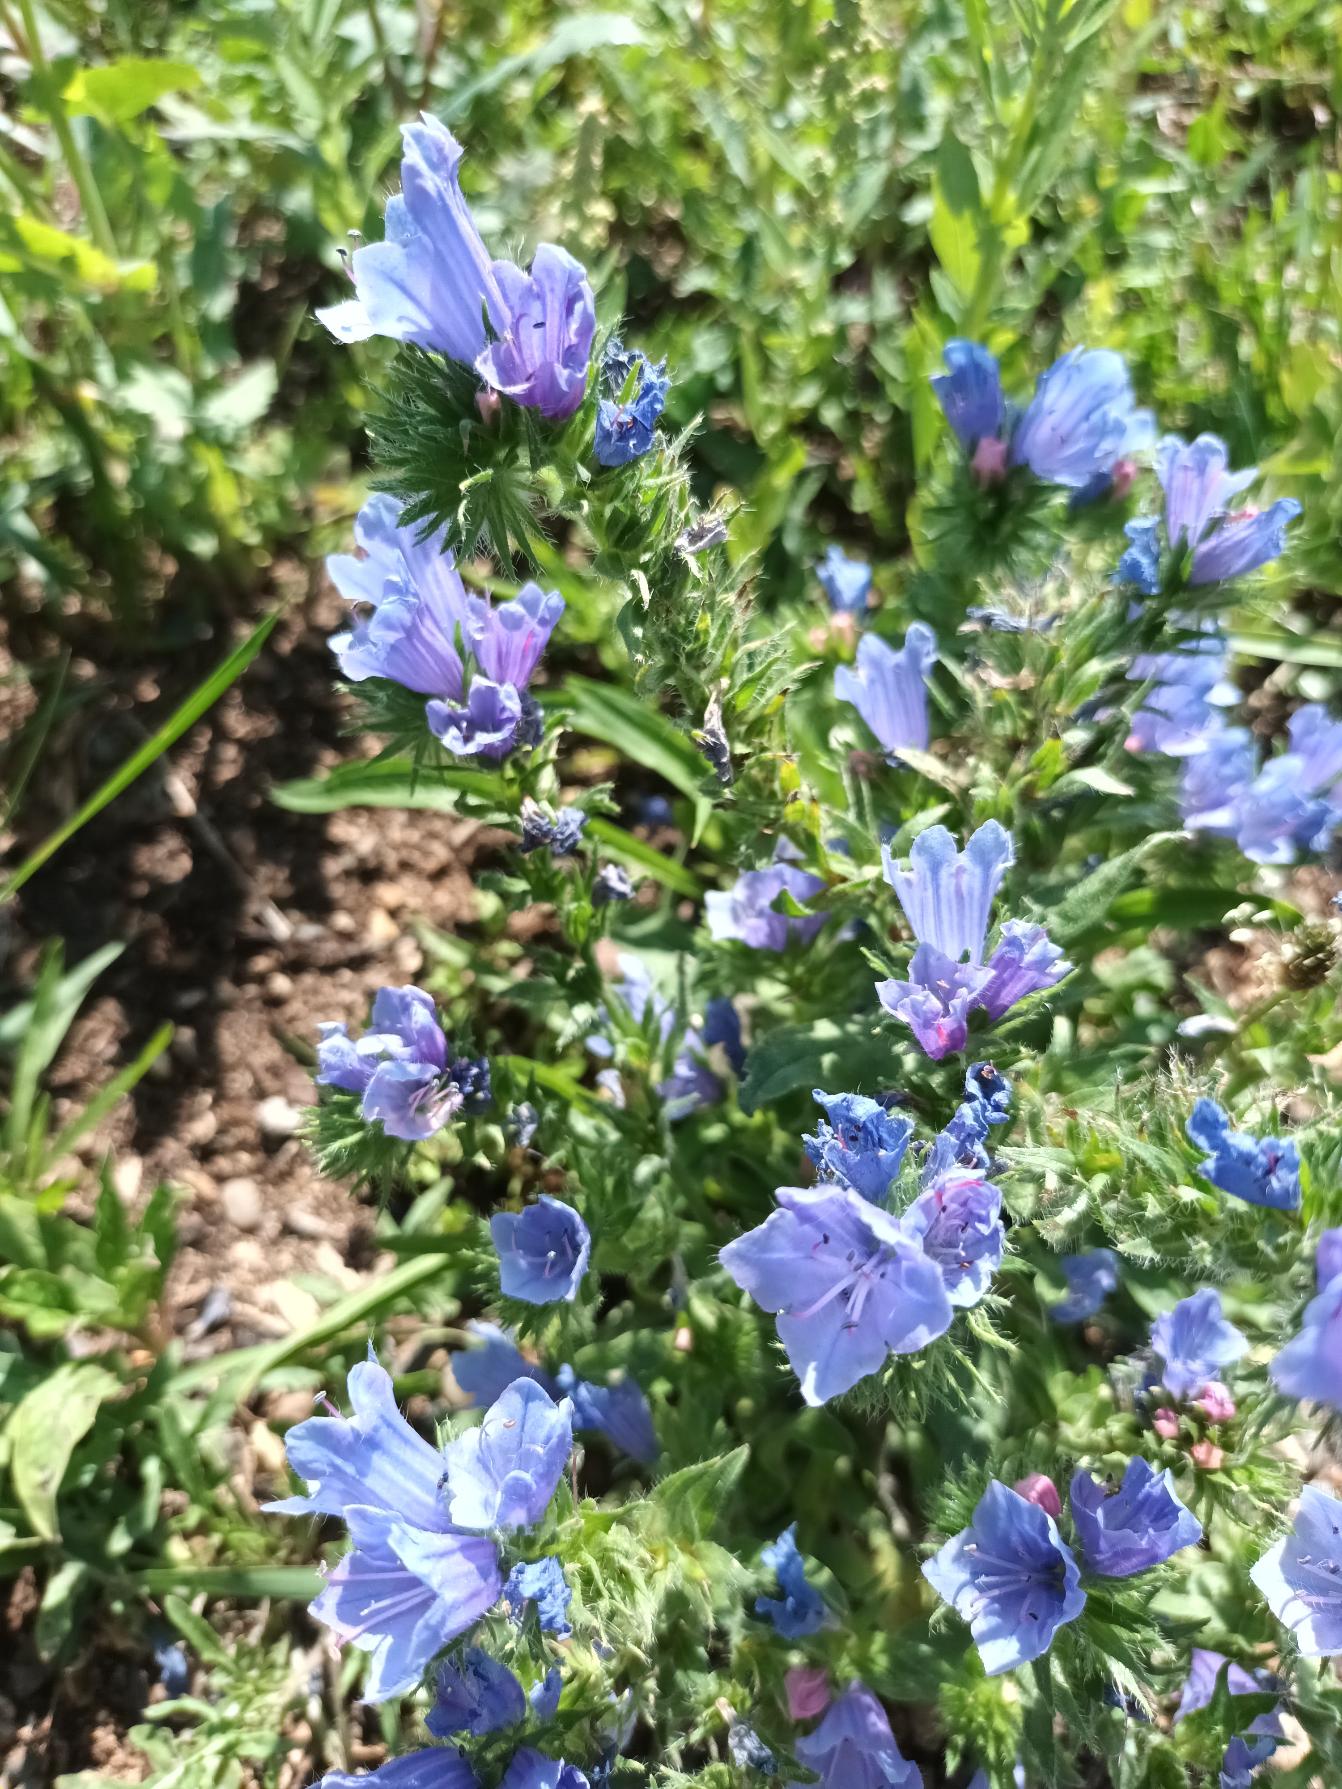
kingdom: Plantae
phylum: Tracheophyta
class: Magnoliopsida
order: Boraginales
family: Boraginaceae
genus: Echium
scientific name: Echium plantagineum
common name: Vejbred-slangehoved
